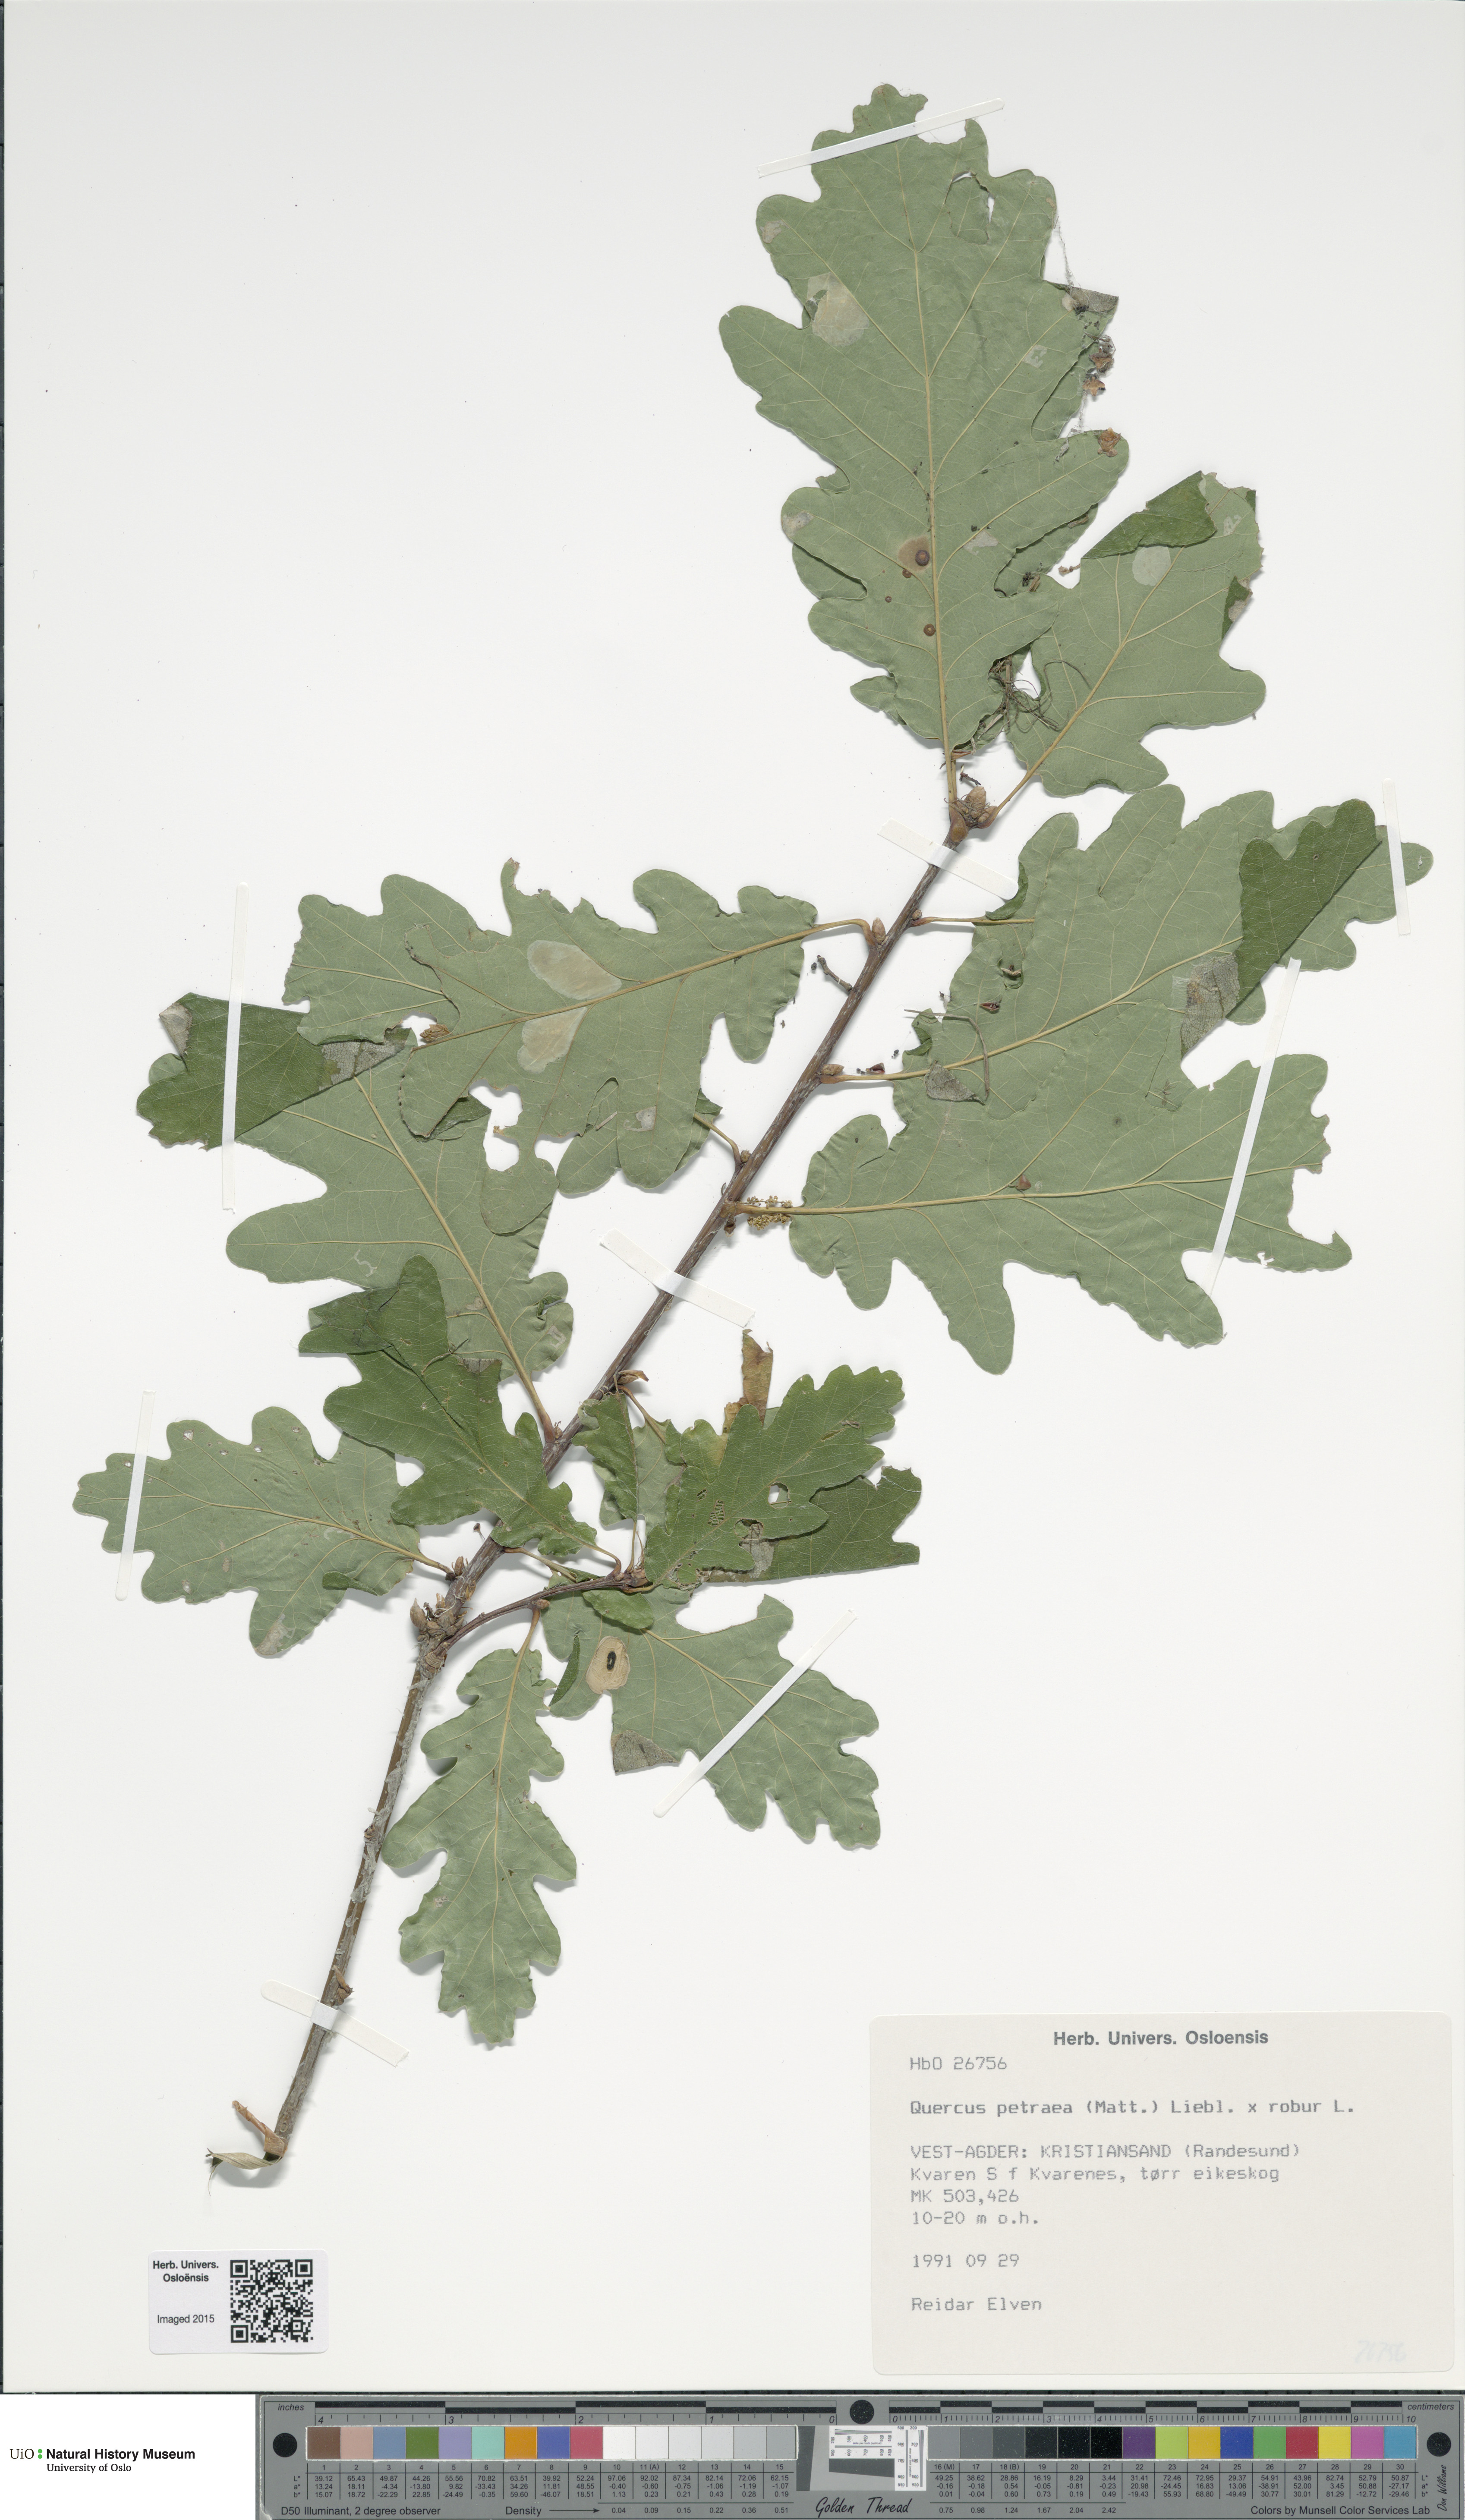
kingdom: Plantae
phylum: Tracheophyta
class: Magnoliopsida
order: Fagales
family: Fagaceae
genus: Quercus
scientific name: Quercus
